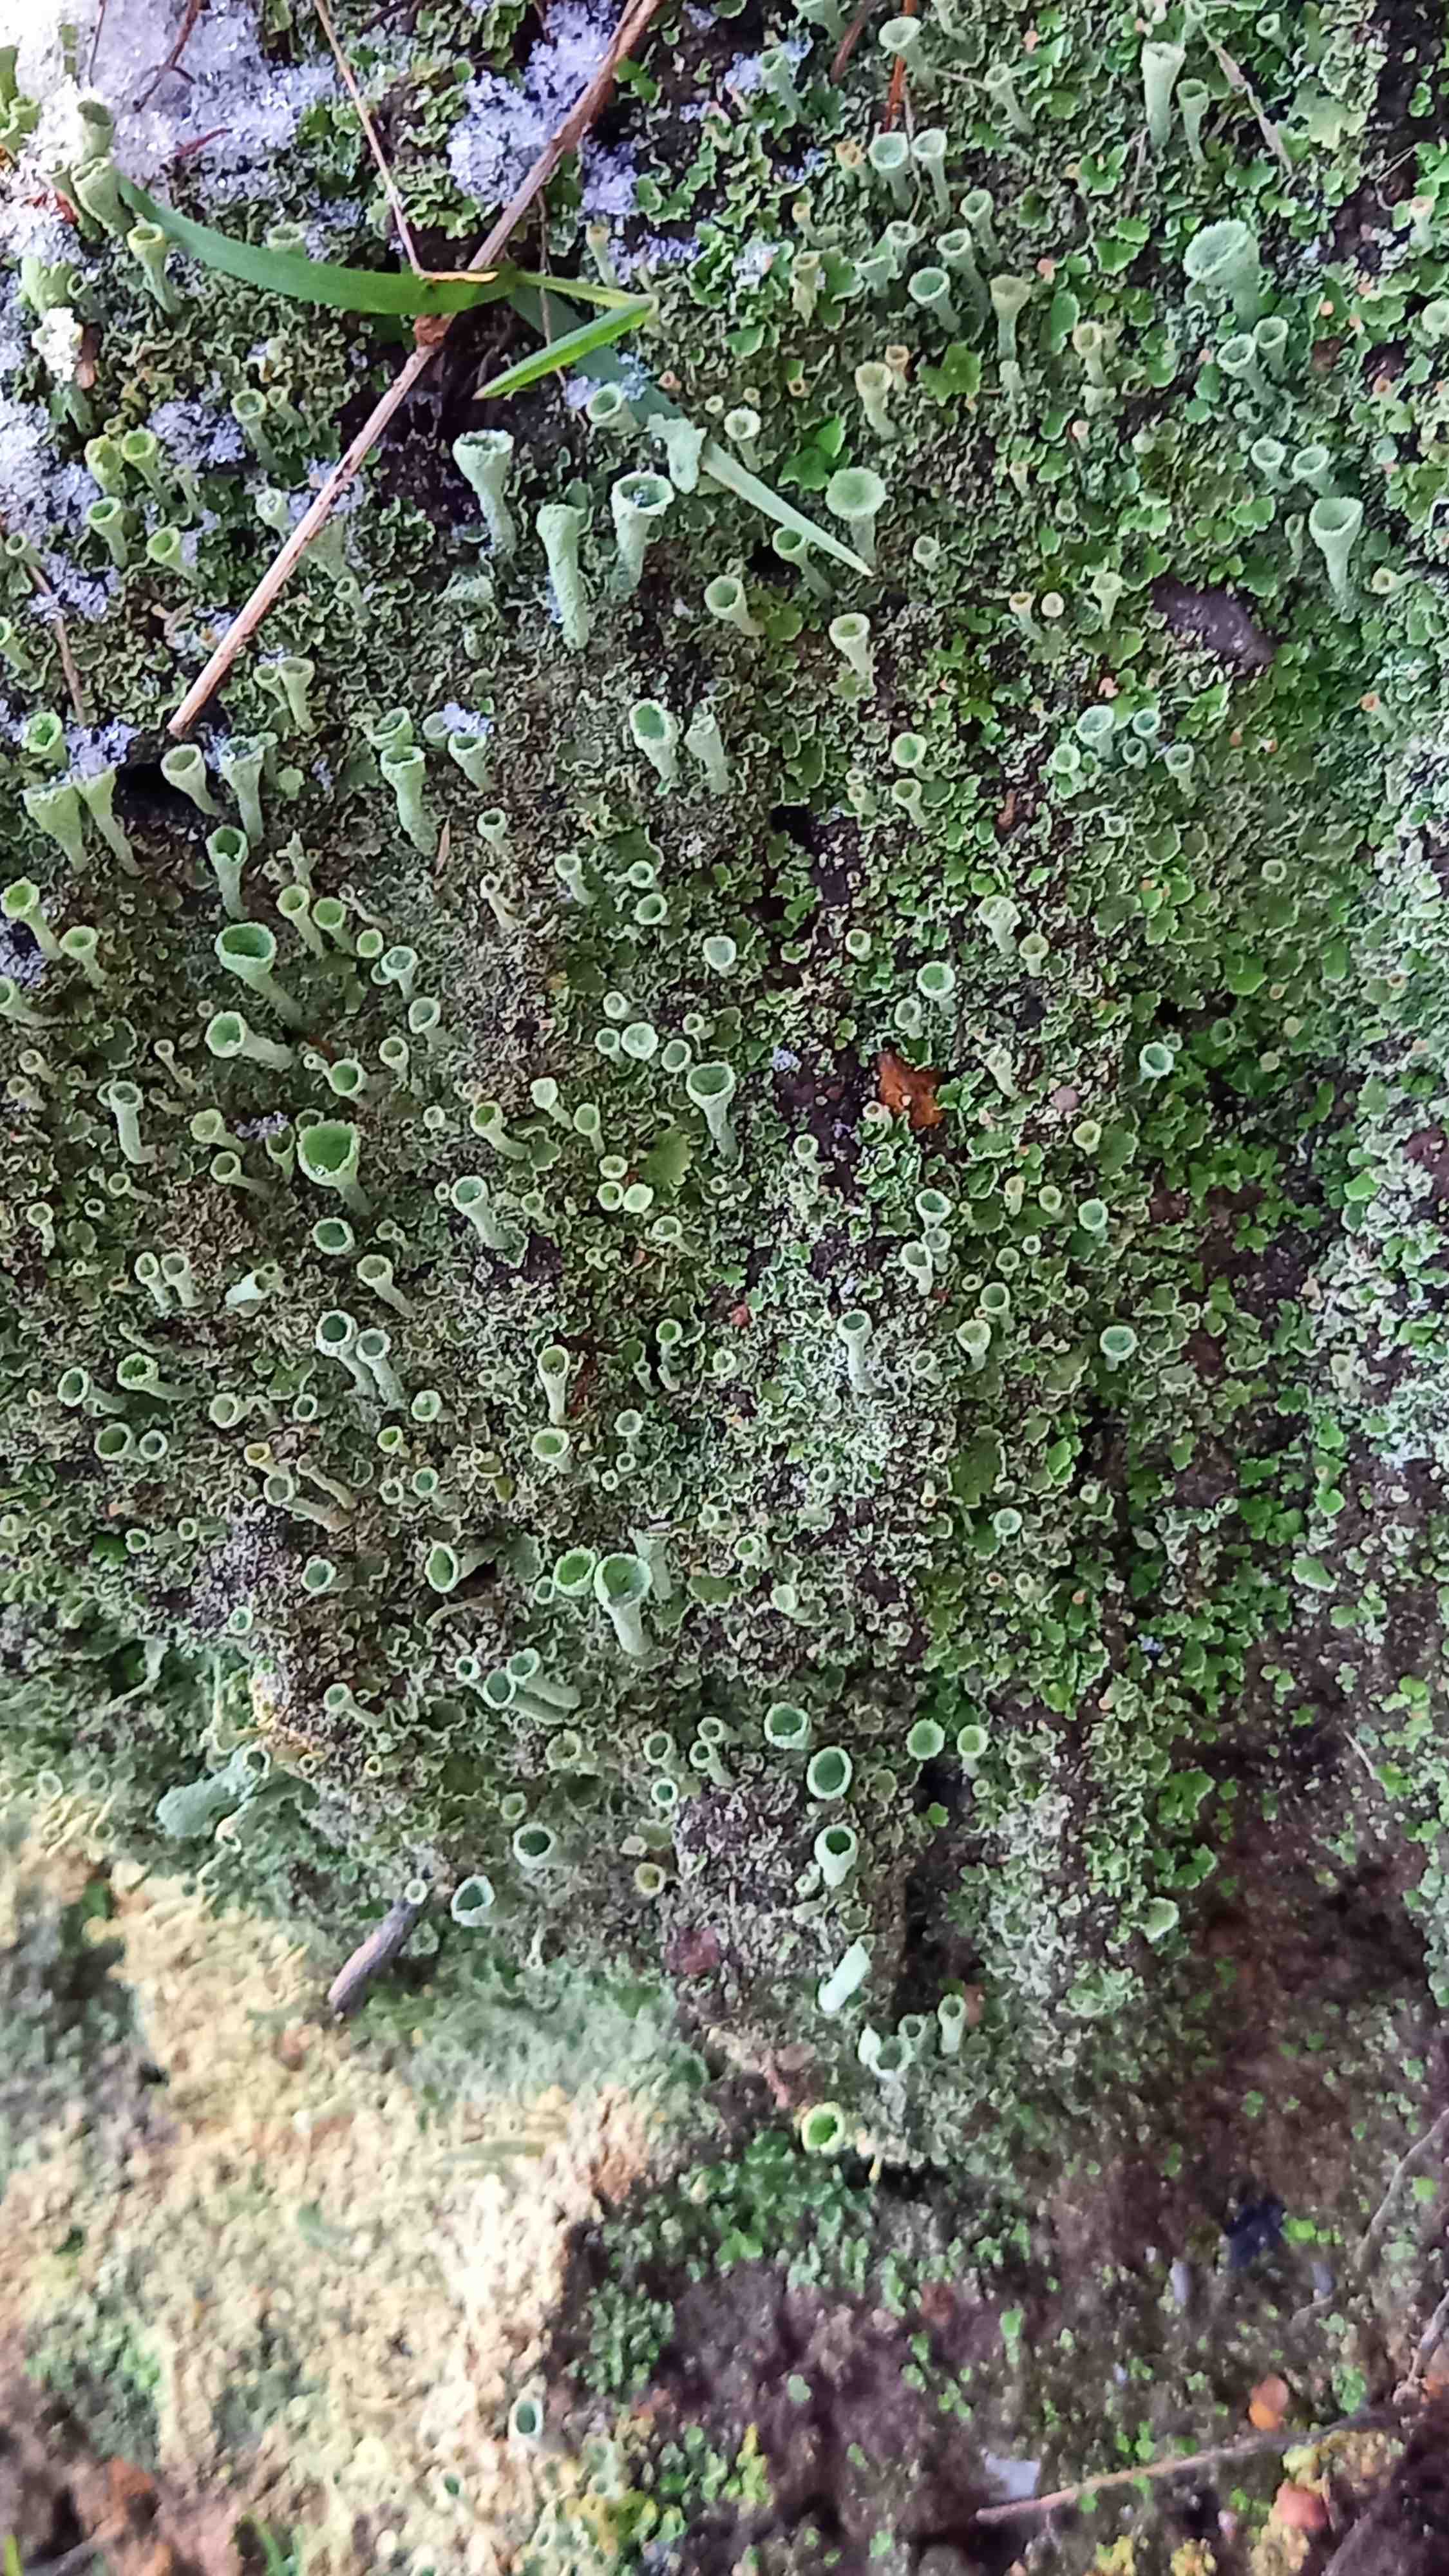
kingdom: Fungi
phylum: Ascomycota
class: Lecanoromycetes
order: Lecanorales
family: Cladoniaceae
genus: Cladonia
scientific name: Cladonia humilis
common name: lav bægerlav
